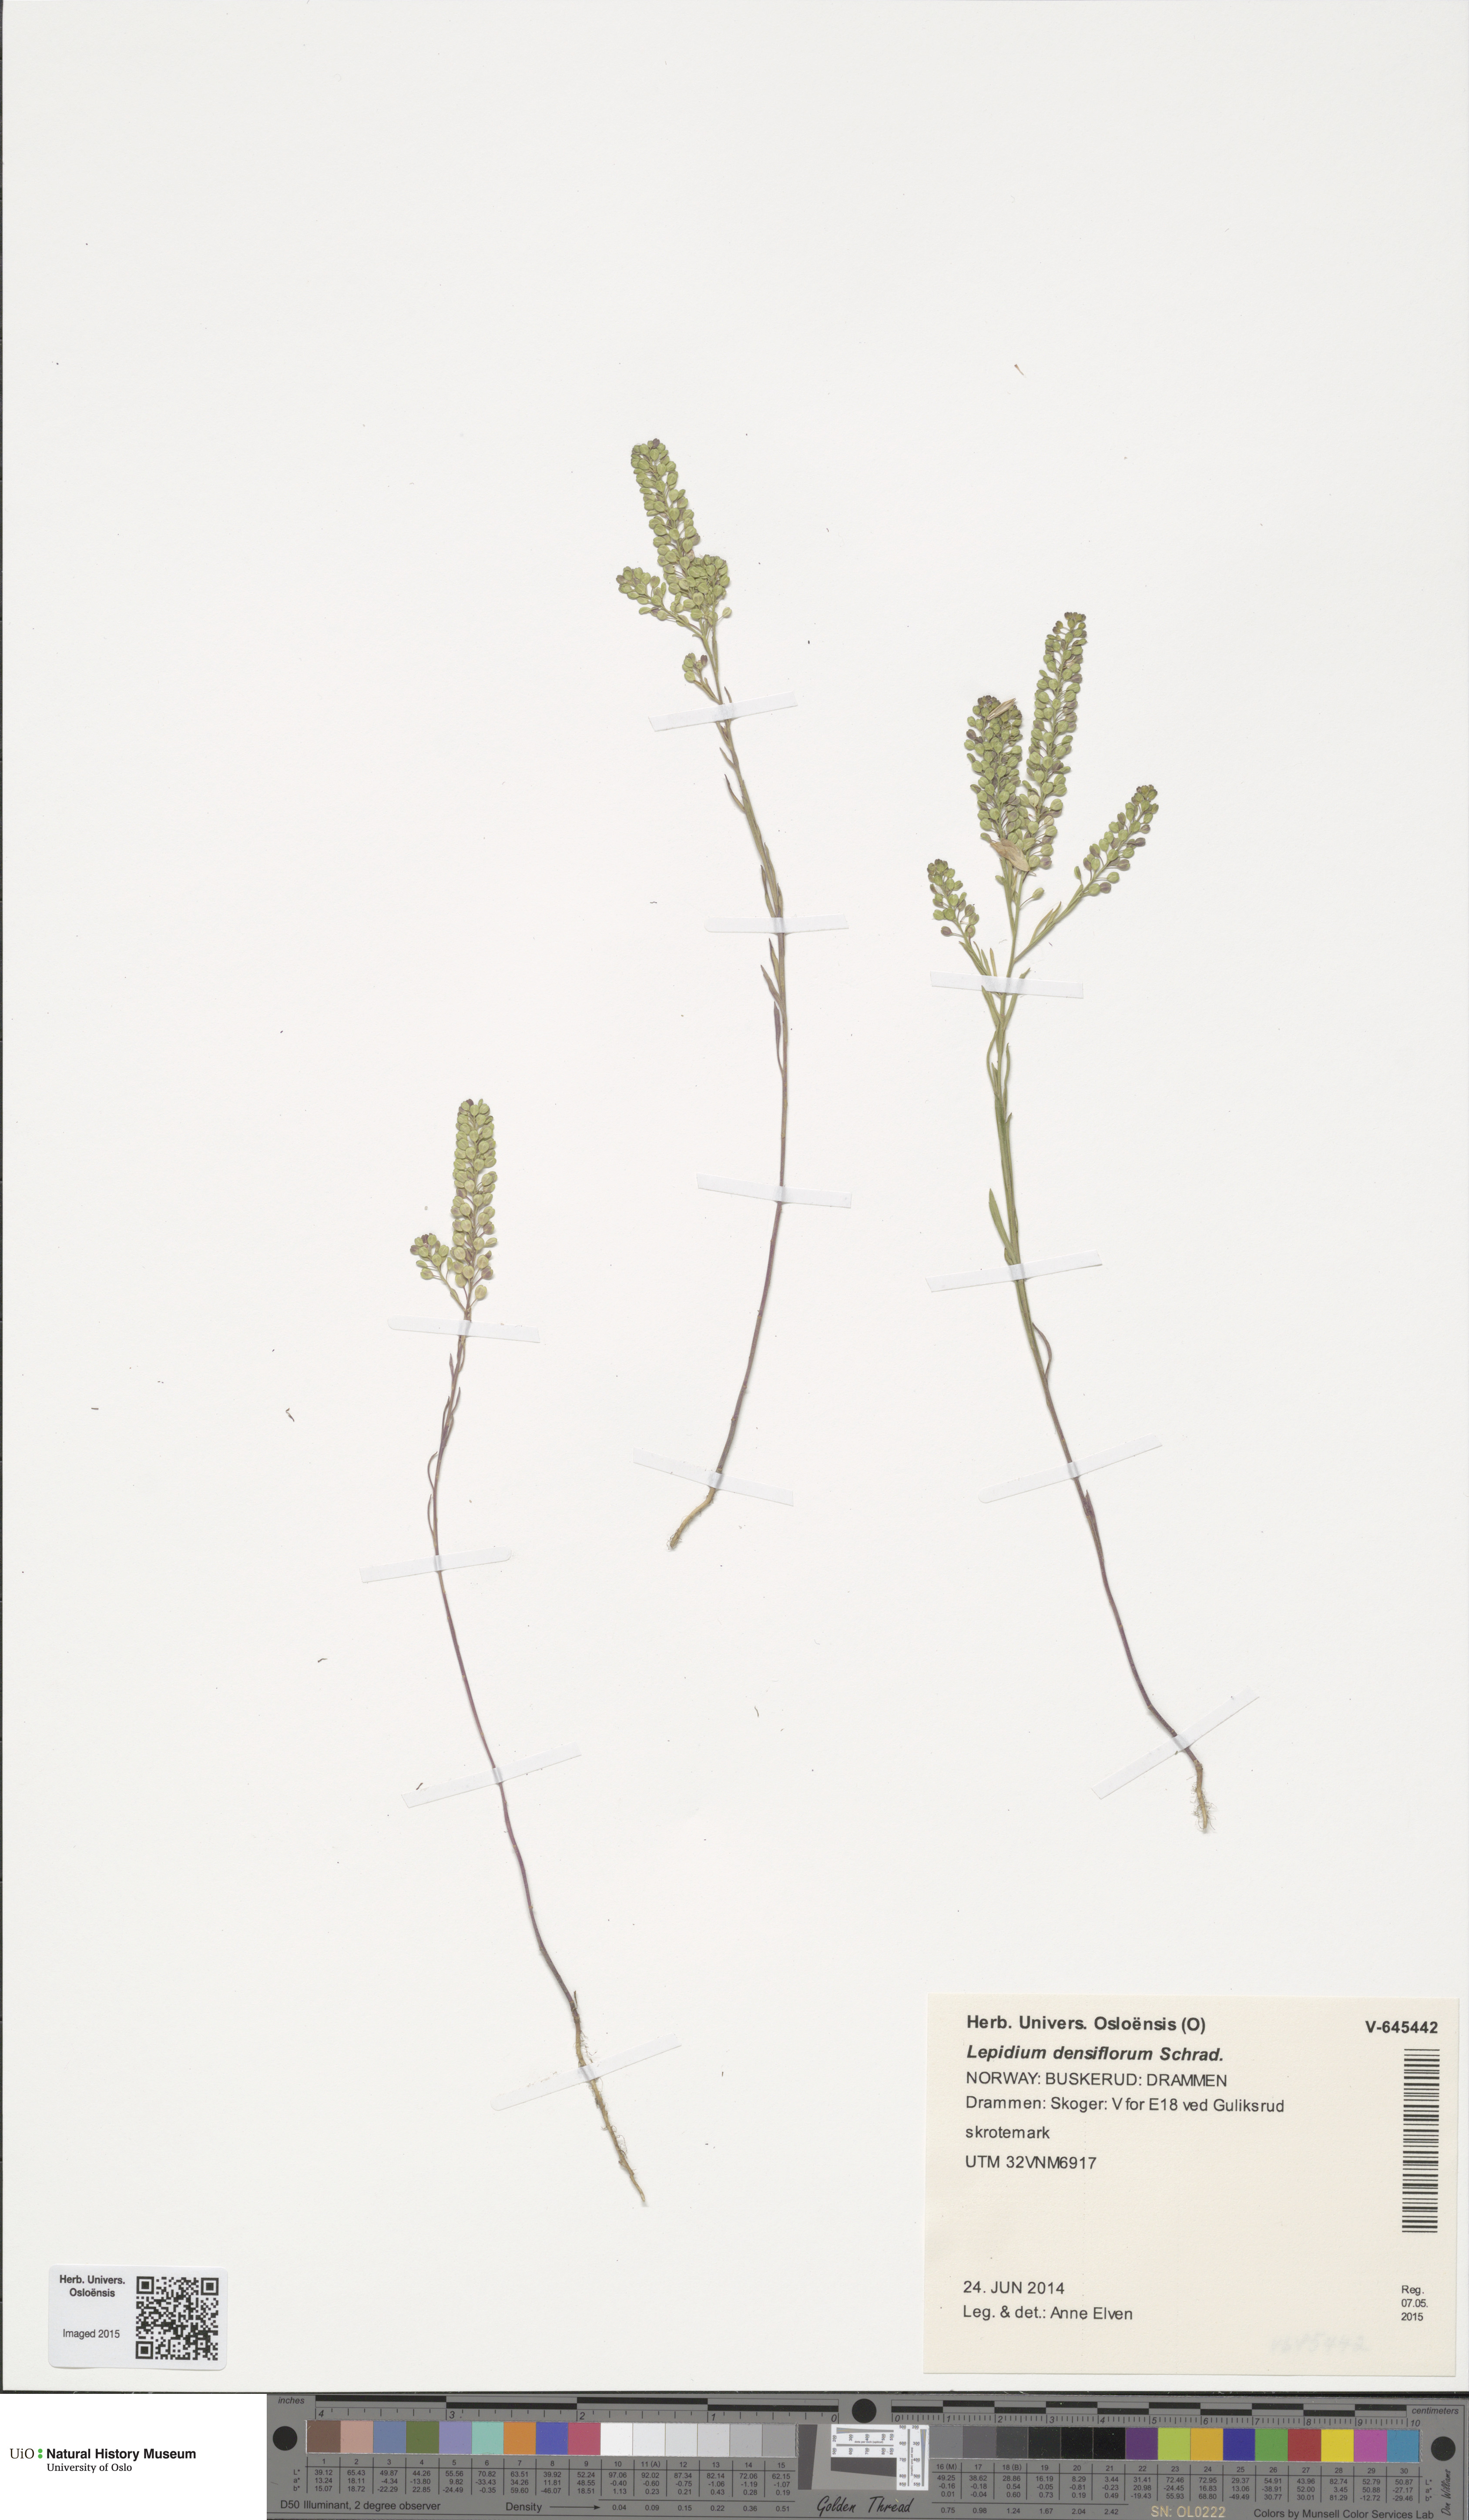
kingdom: Plantae
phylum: Tracheophyta
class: Magnoliopsida
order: Brassicales
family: Brassicaceae
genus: Lepidium
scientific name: Lepidium densiflorum
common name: Miner's pepperwort
